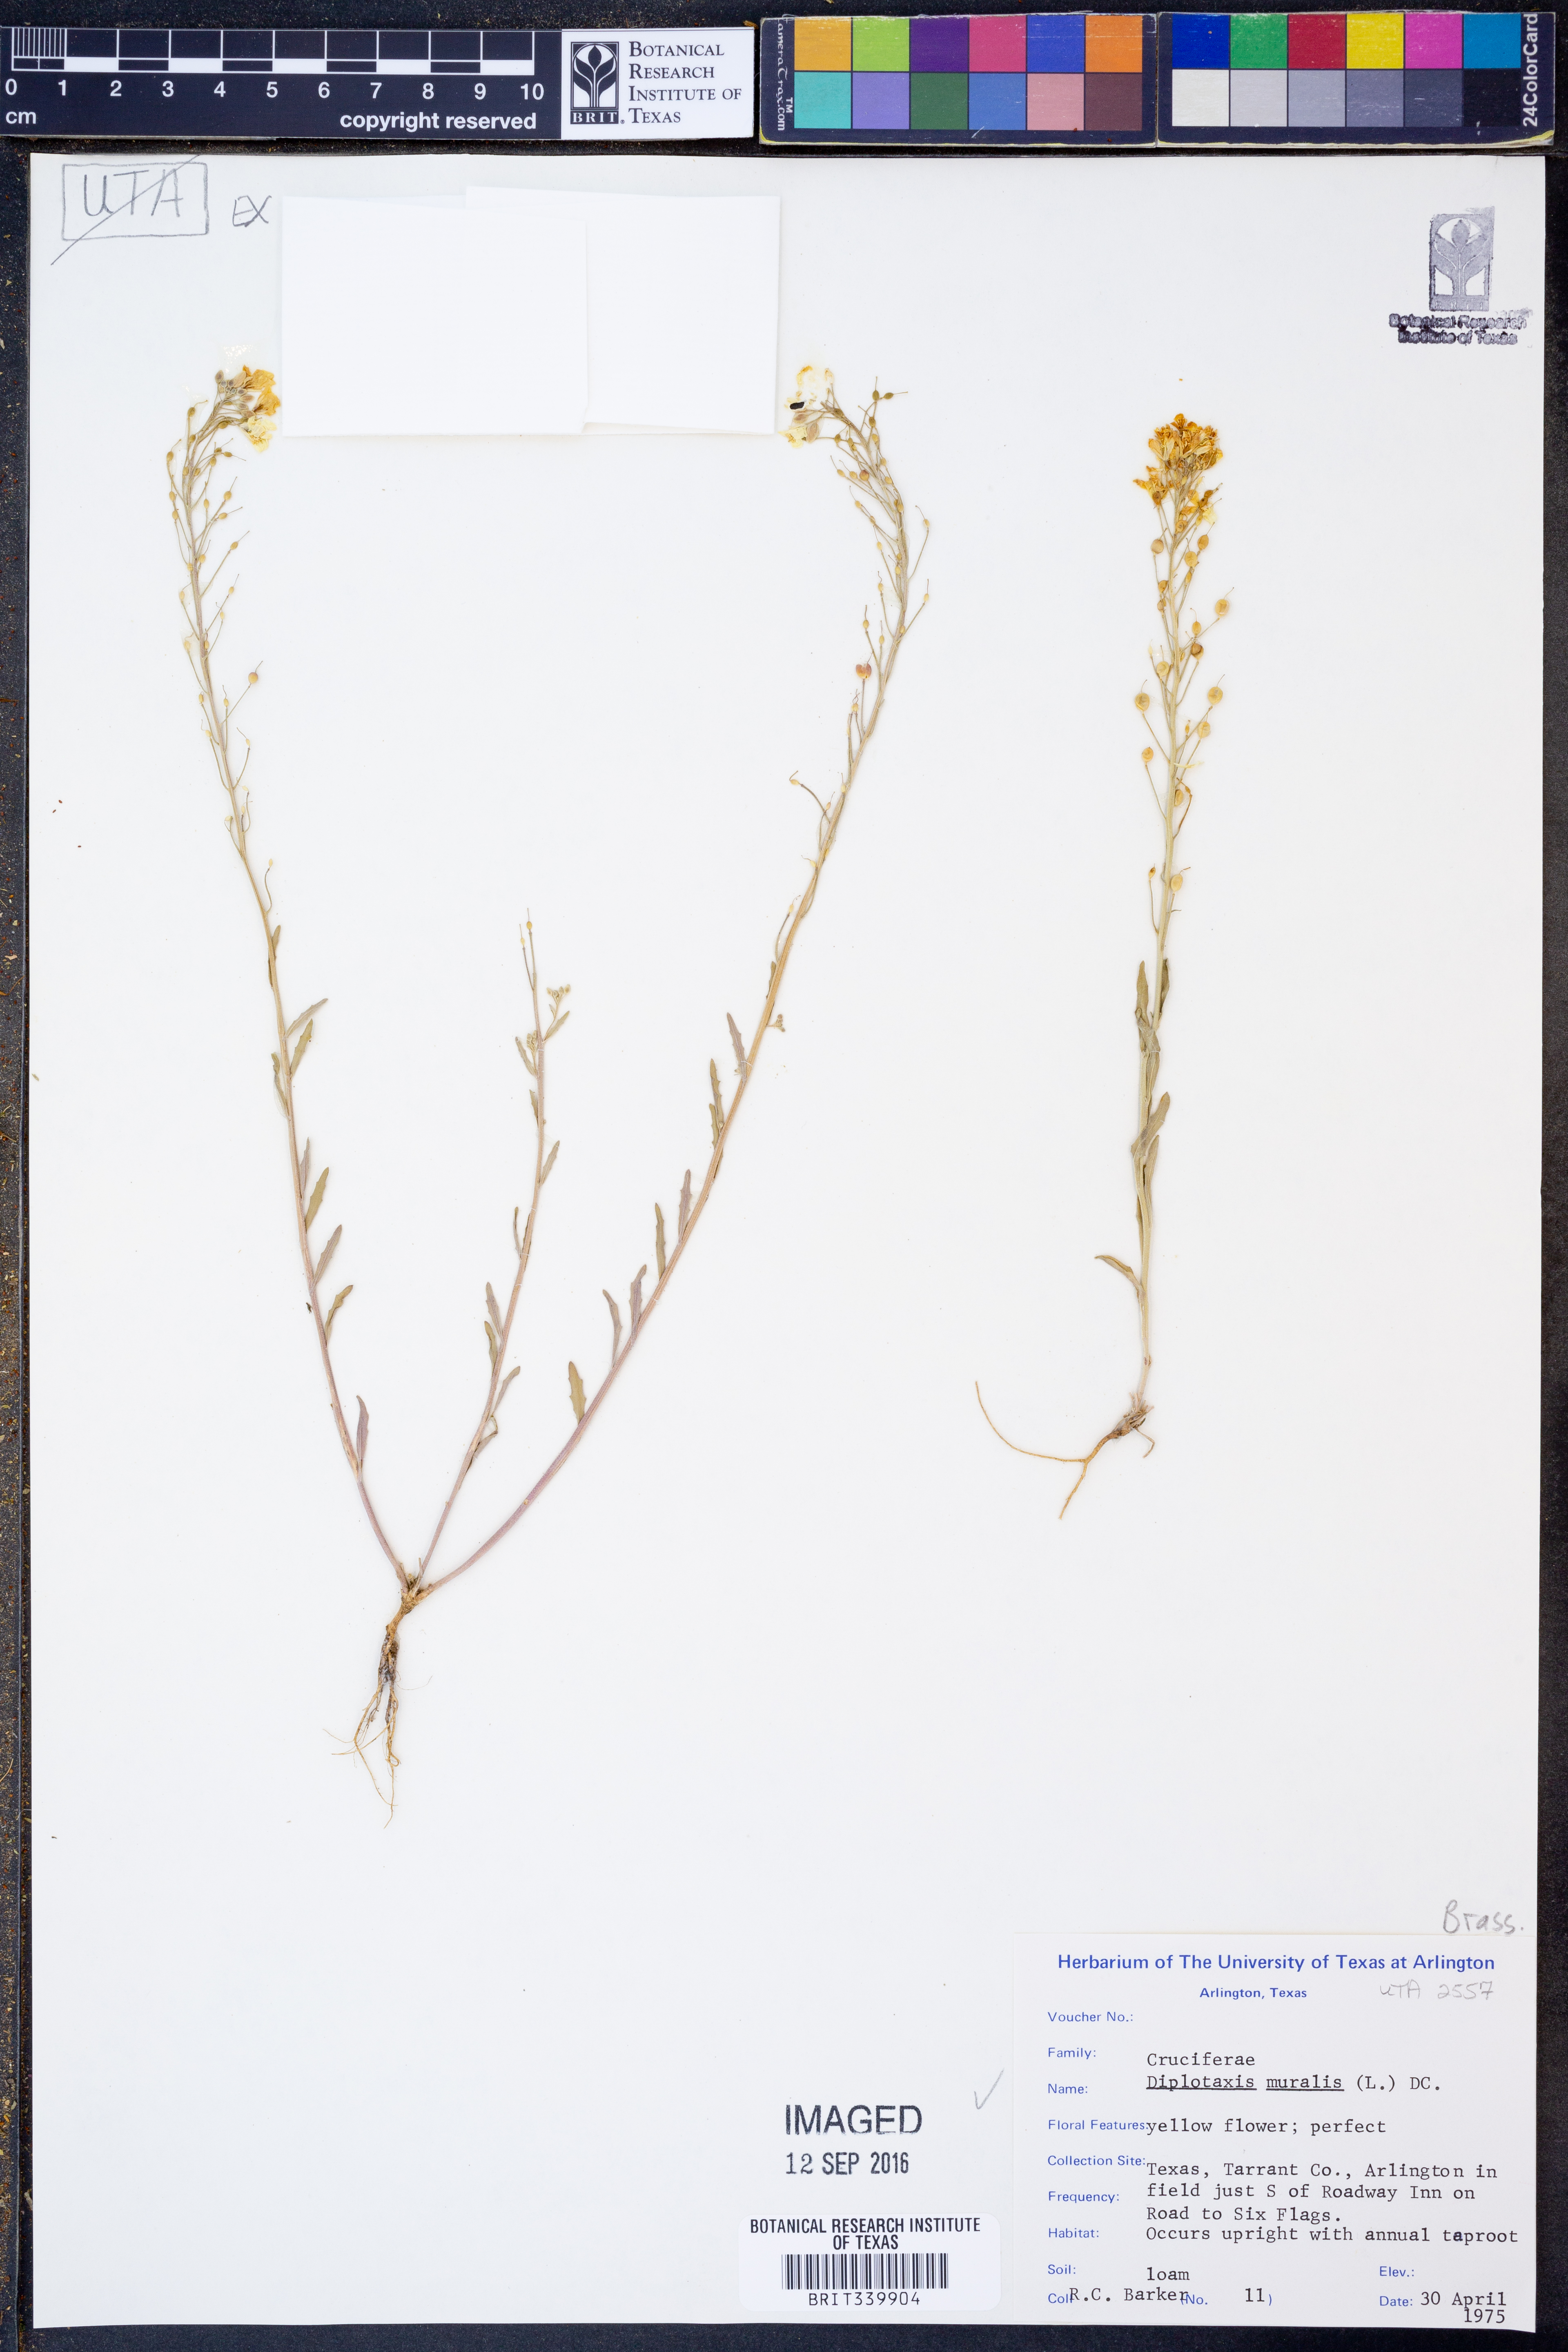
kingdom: Plantae
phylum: Tracheophyta
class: Magnoliopsida
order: Brassicales
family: Brassicaceae
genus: Diplotaxis
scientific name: Diplotaxis muralis
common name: Annual wall-rocket
